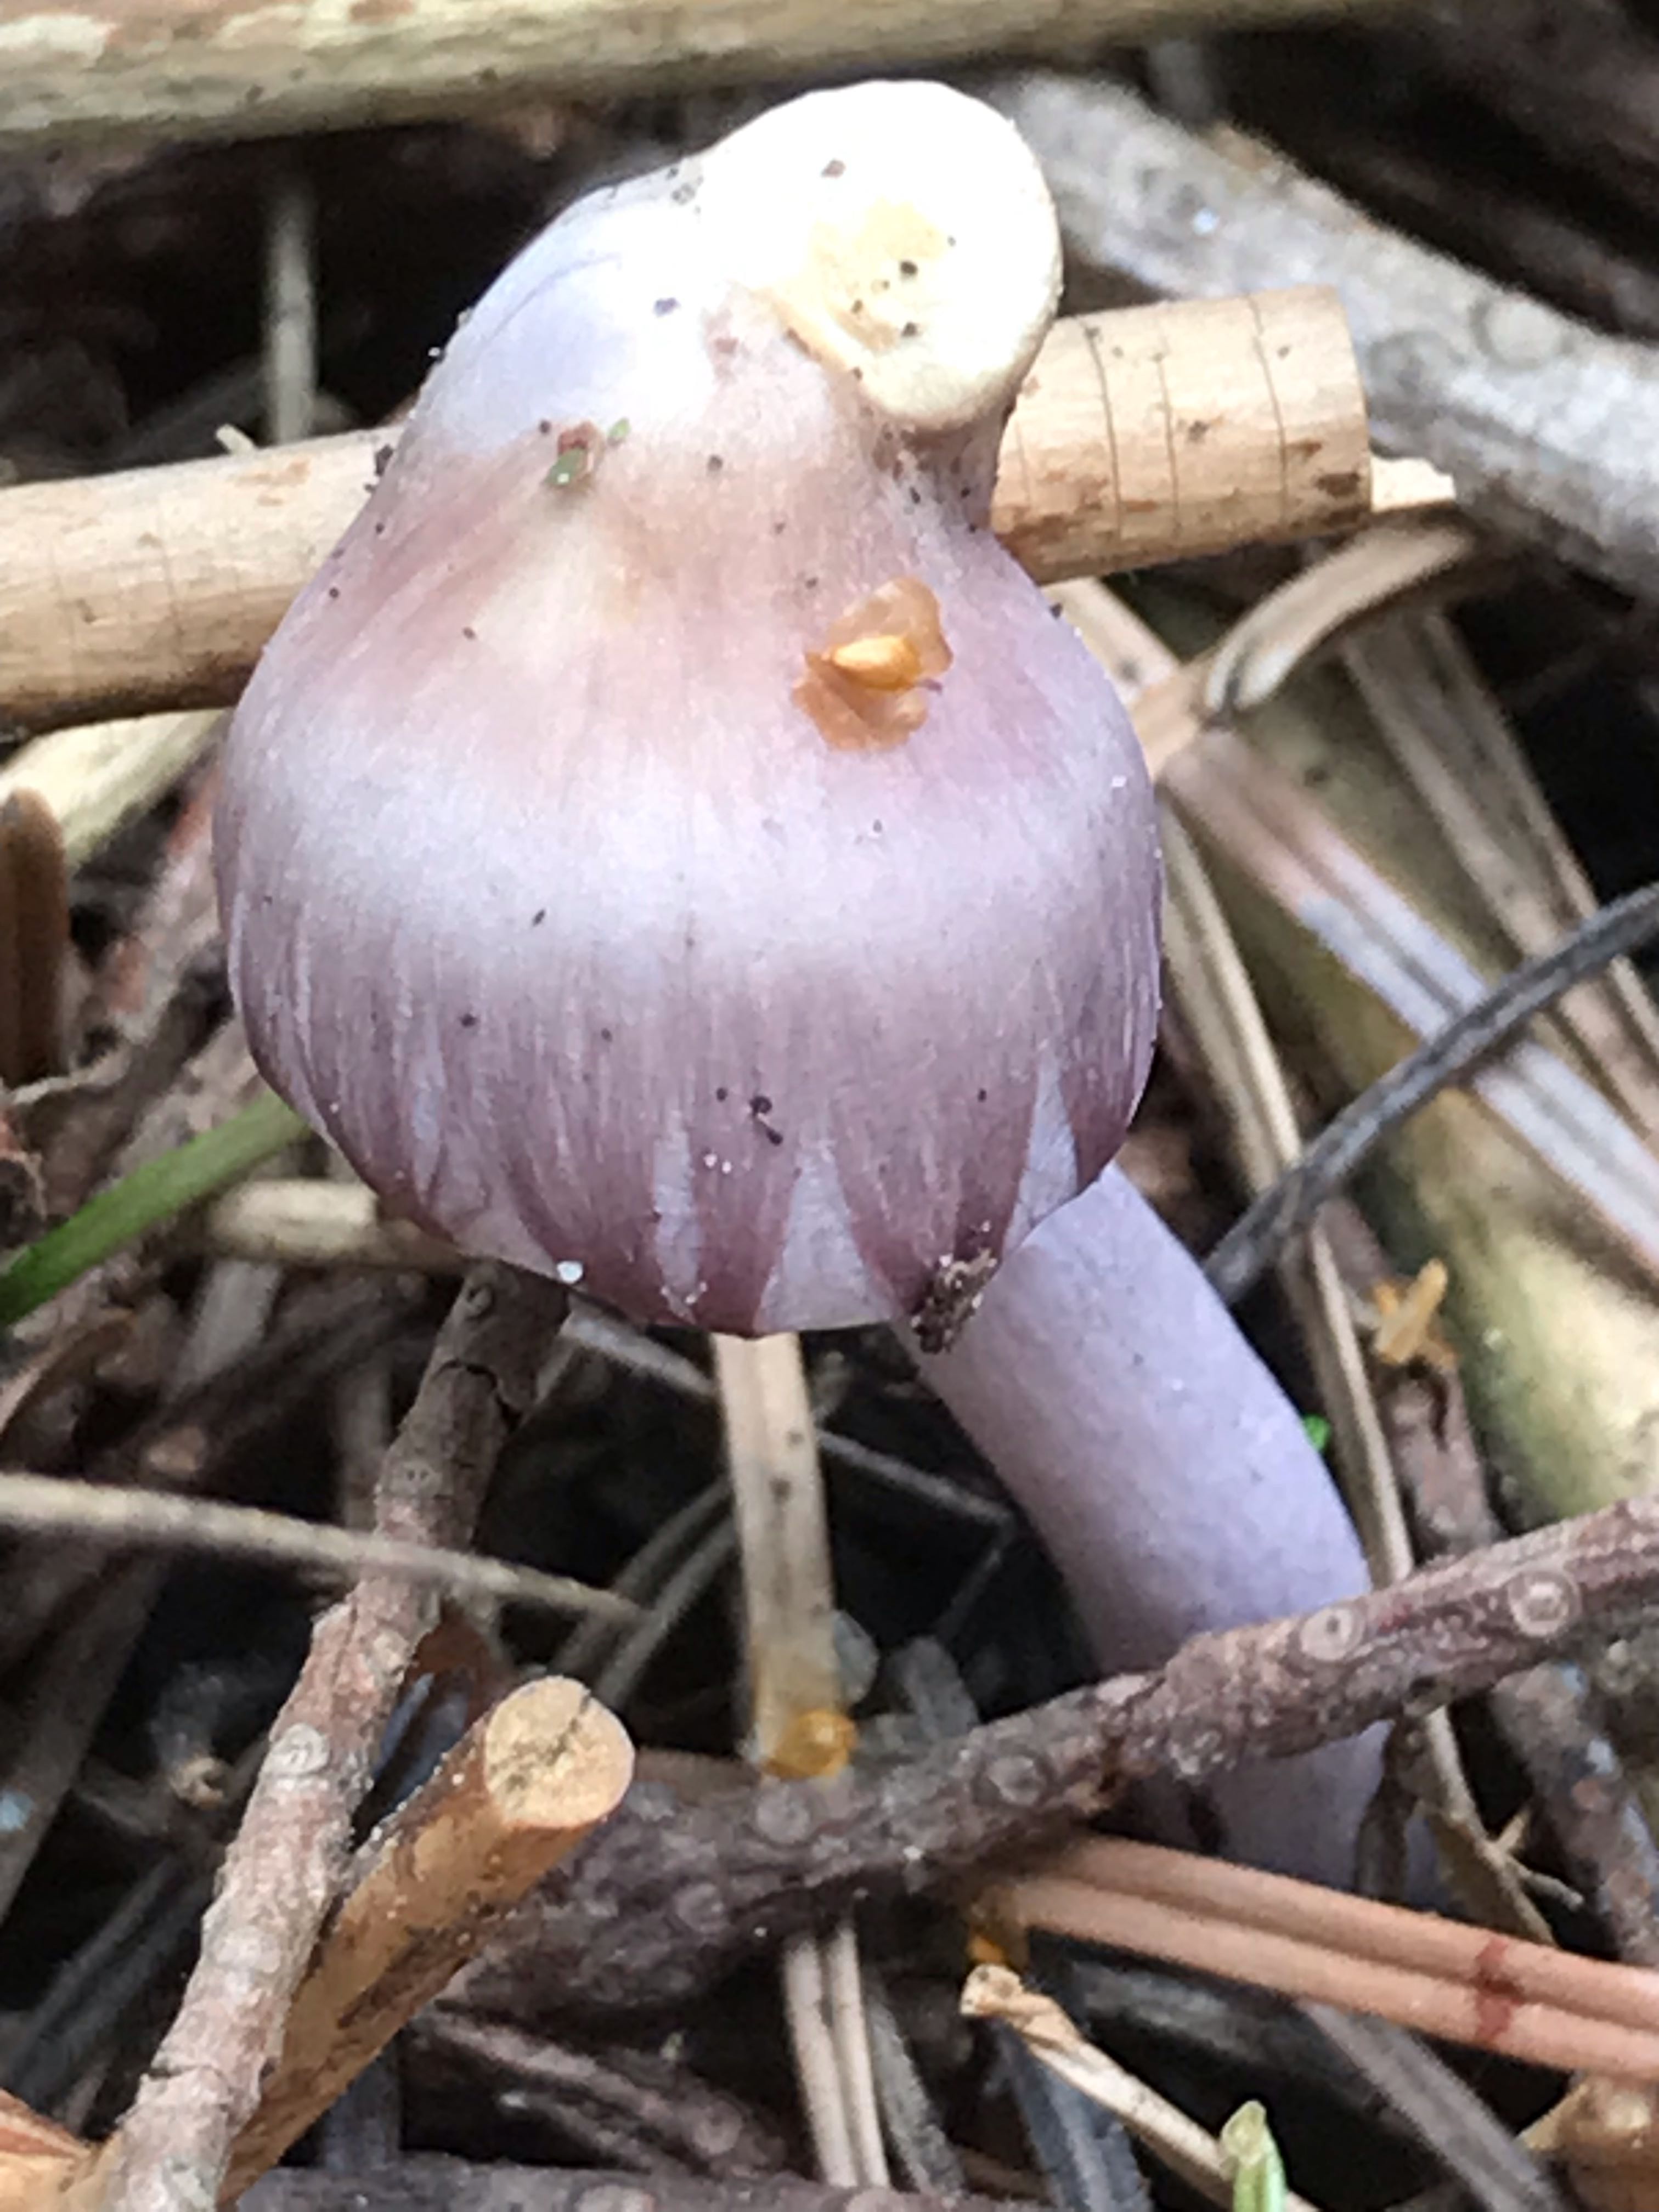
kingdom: Fungi
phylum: Basidiomycota
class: Agaricomycetes
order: Agaricales
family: Inocybaceae
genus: Inocybe
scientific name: Inocybe geophylla
